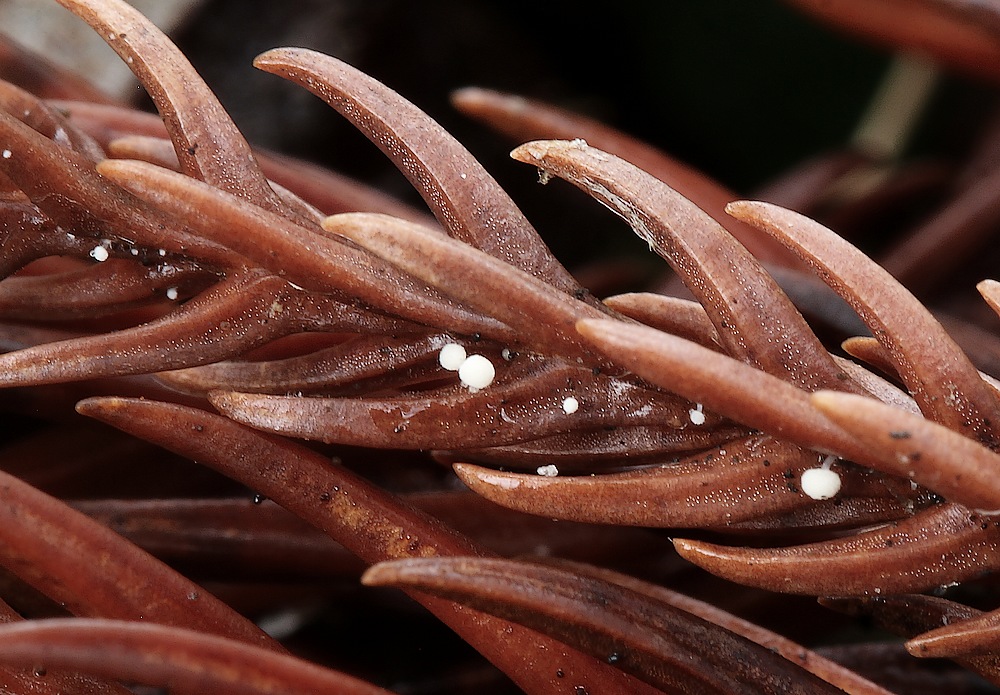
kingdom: Fungi
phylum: Basidiomycota
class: Agaricomycetes
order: Agaricales
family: Physalacriaceae
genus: Physalacria
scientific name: Physalacria cryptomeriae
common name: japangran-boldkølle
